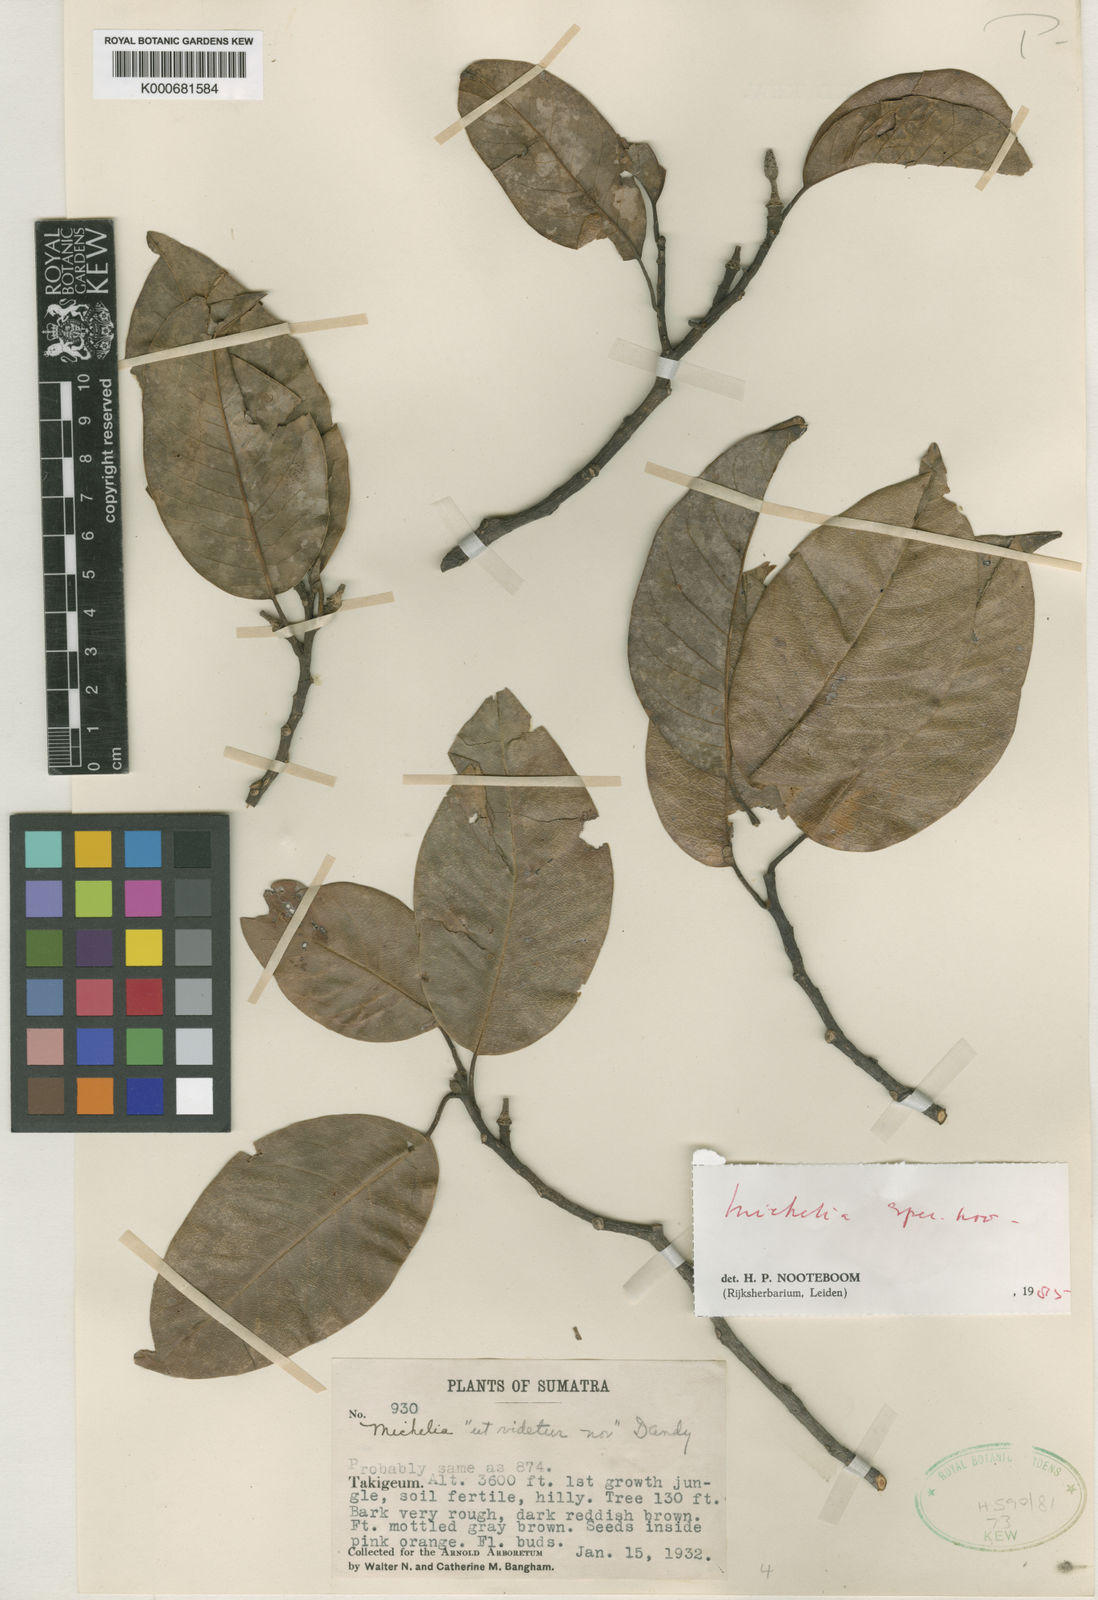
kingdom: Plantae
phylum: Tracheophyta
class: Magnoliopsida
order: Magnoliales
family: Magnoliaceae
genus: Magnolia
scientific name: Magnolia banghamii
